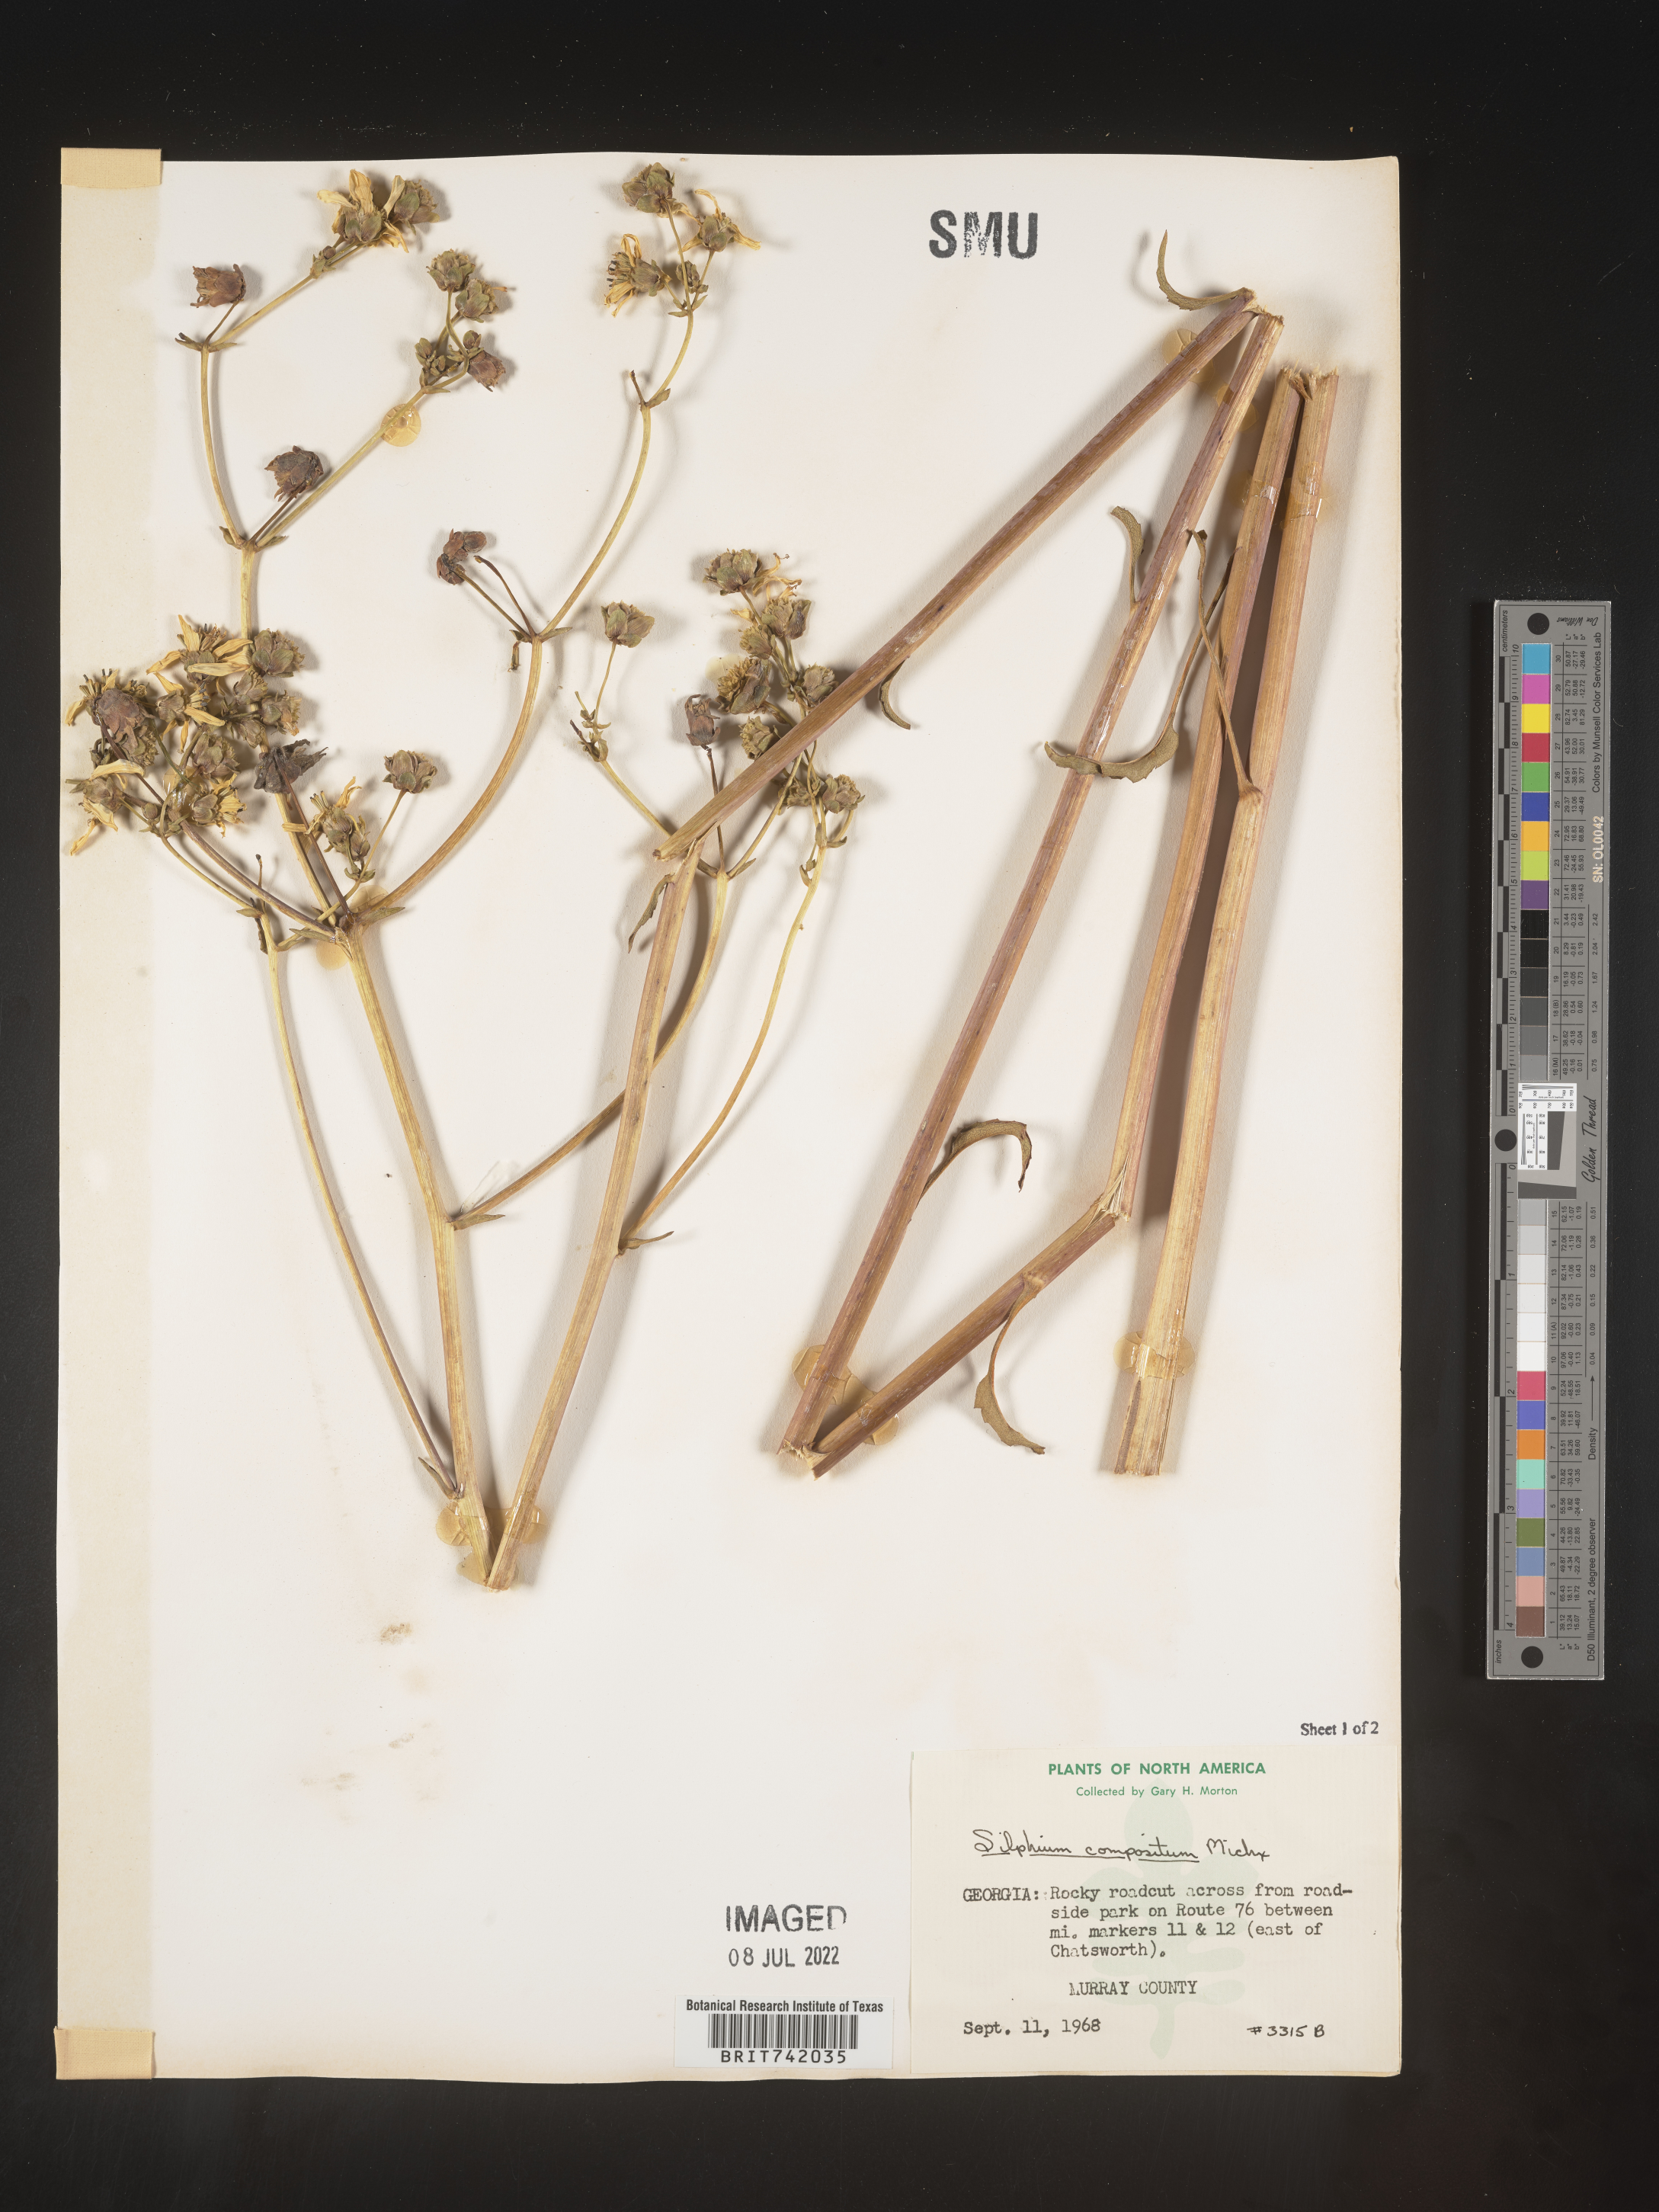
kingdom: Plantae
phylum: Tracheophyta
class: Magnoliopsida
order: Asterales
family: Asteraceae
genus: Silphium
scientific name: Silphium compositum
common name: Lesser basal-leaf rosinweed
